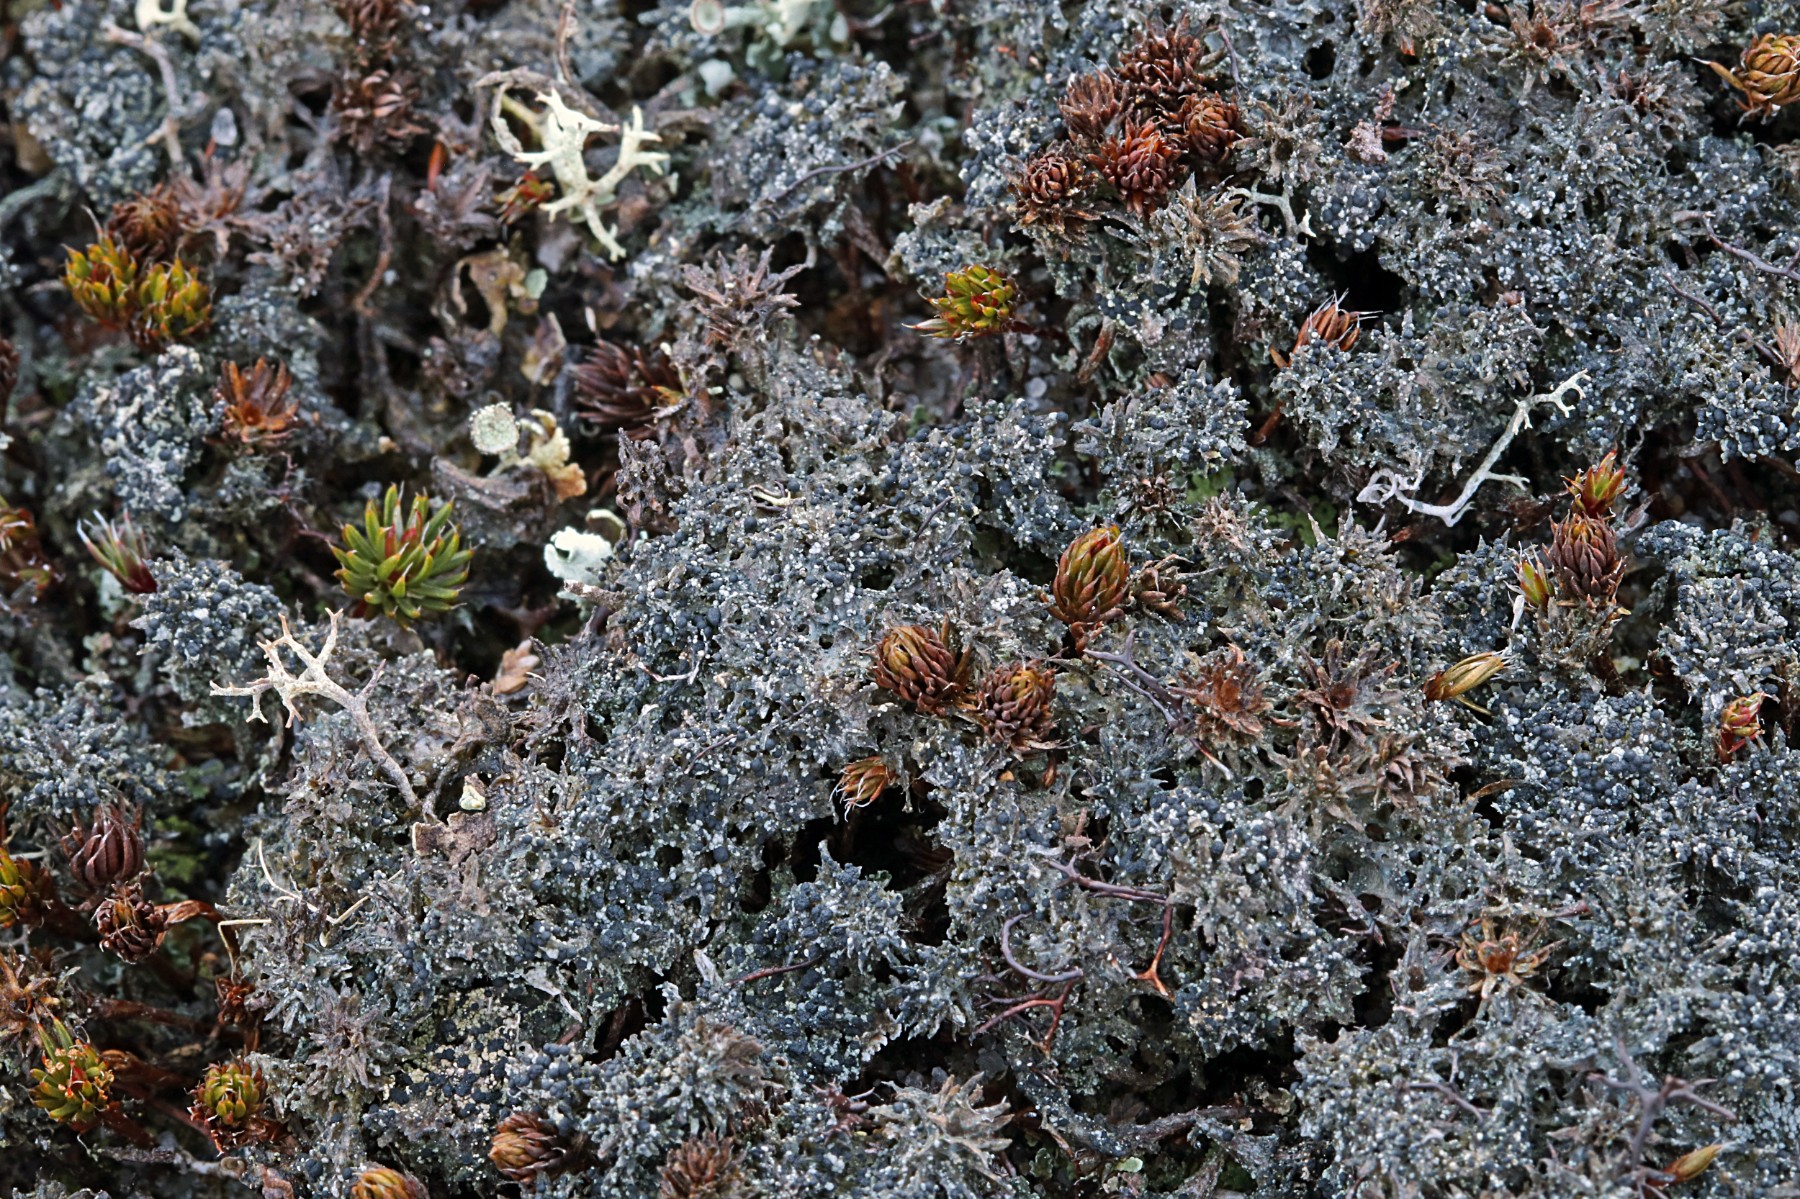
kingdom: Fungi
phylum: Ascomycota
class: Lecanoromycetes
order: Lecanorales
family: Byssolomataceae
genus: Micarea
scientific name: Micarea lignaria
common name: tørve-knaplav
